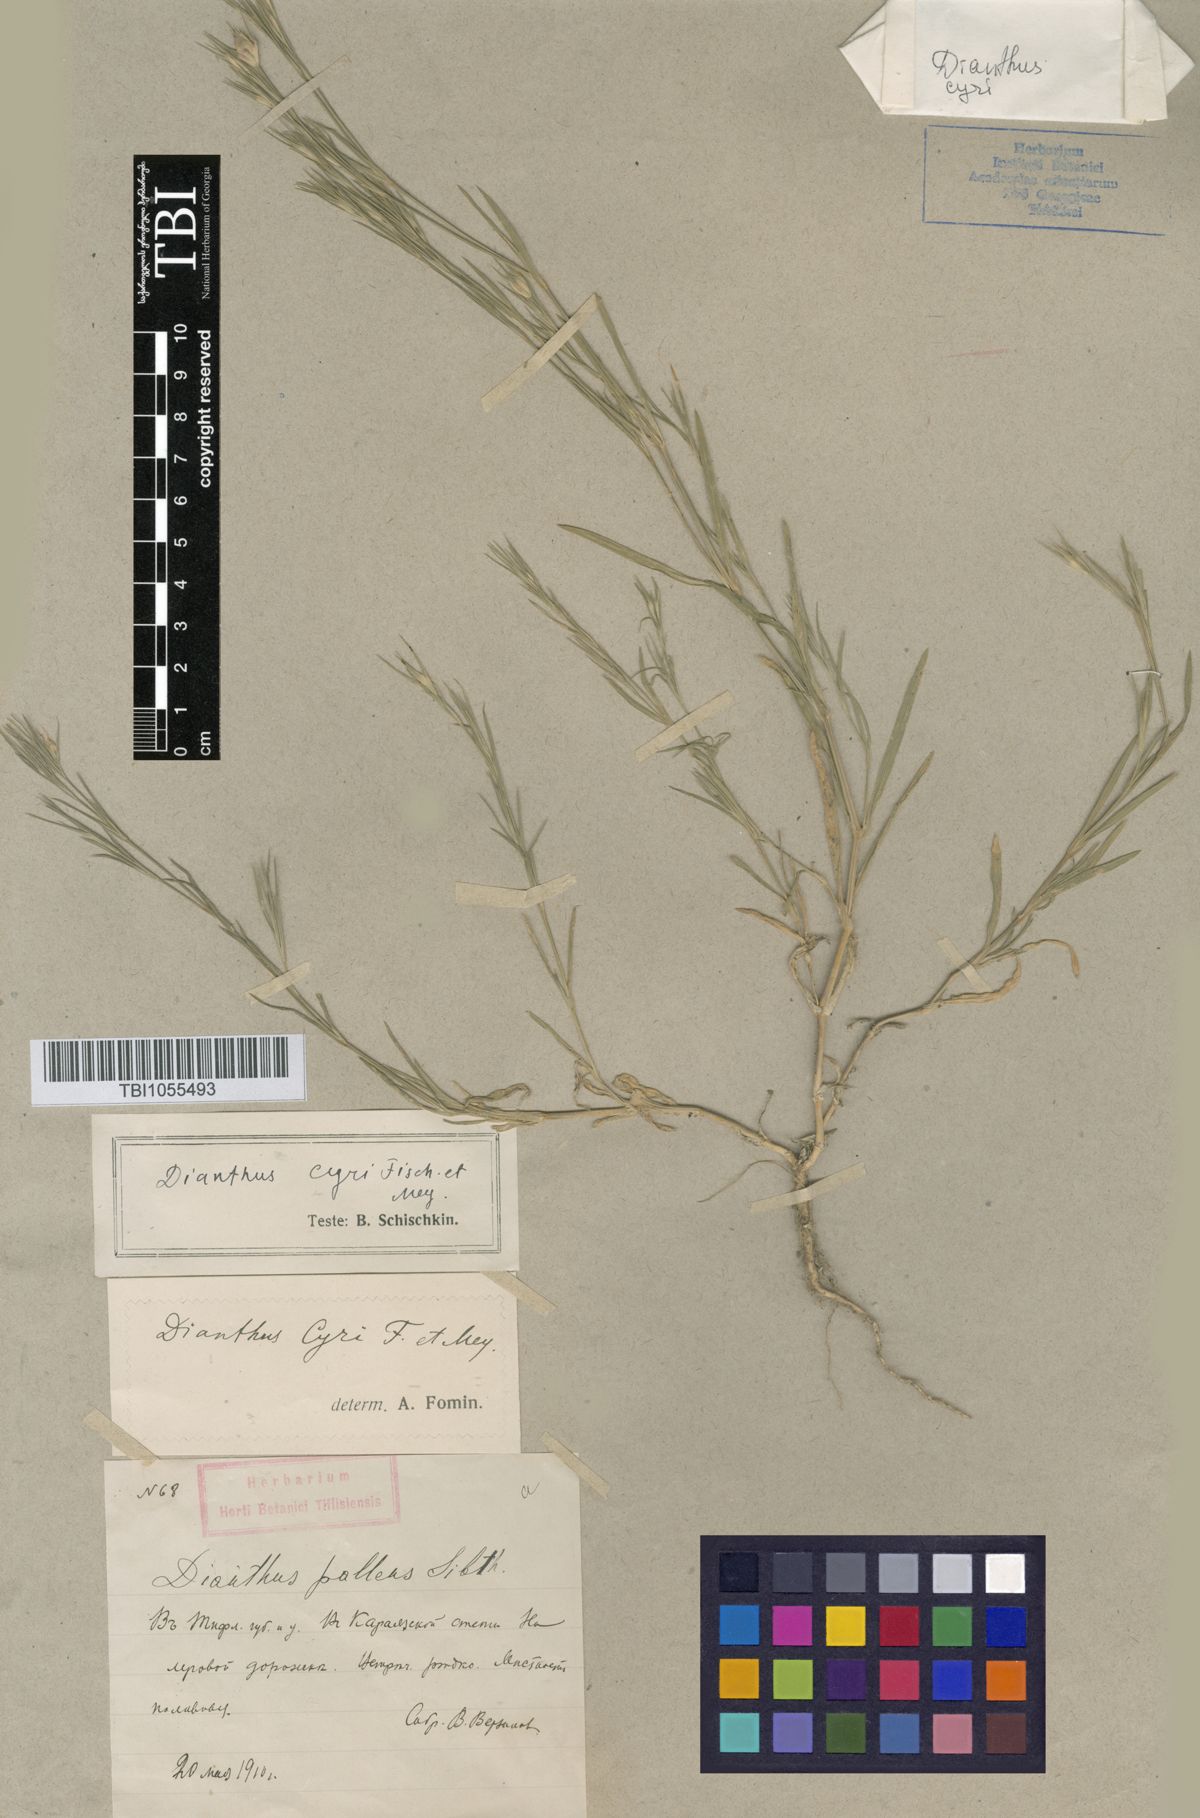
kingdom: Plantae
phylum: Tracheophyta
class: Magnoliopsida
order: Caryophyllales
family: Caryophyllaceae
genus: Dianthus
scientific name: Dianthus cyri
